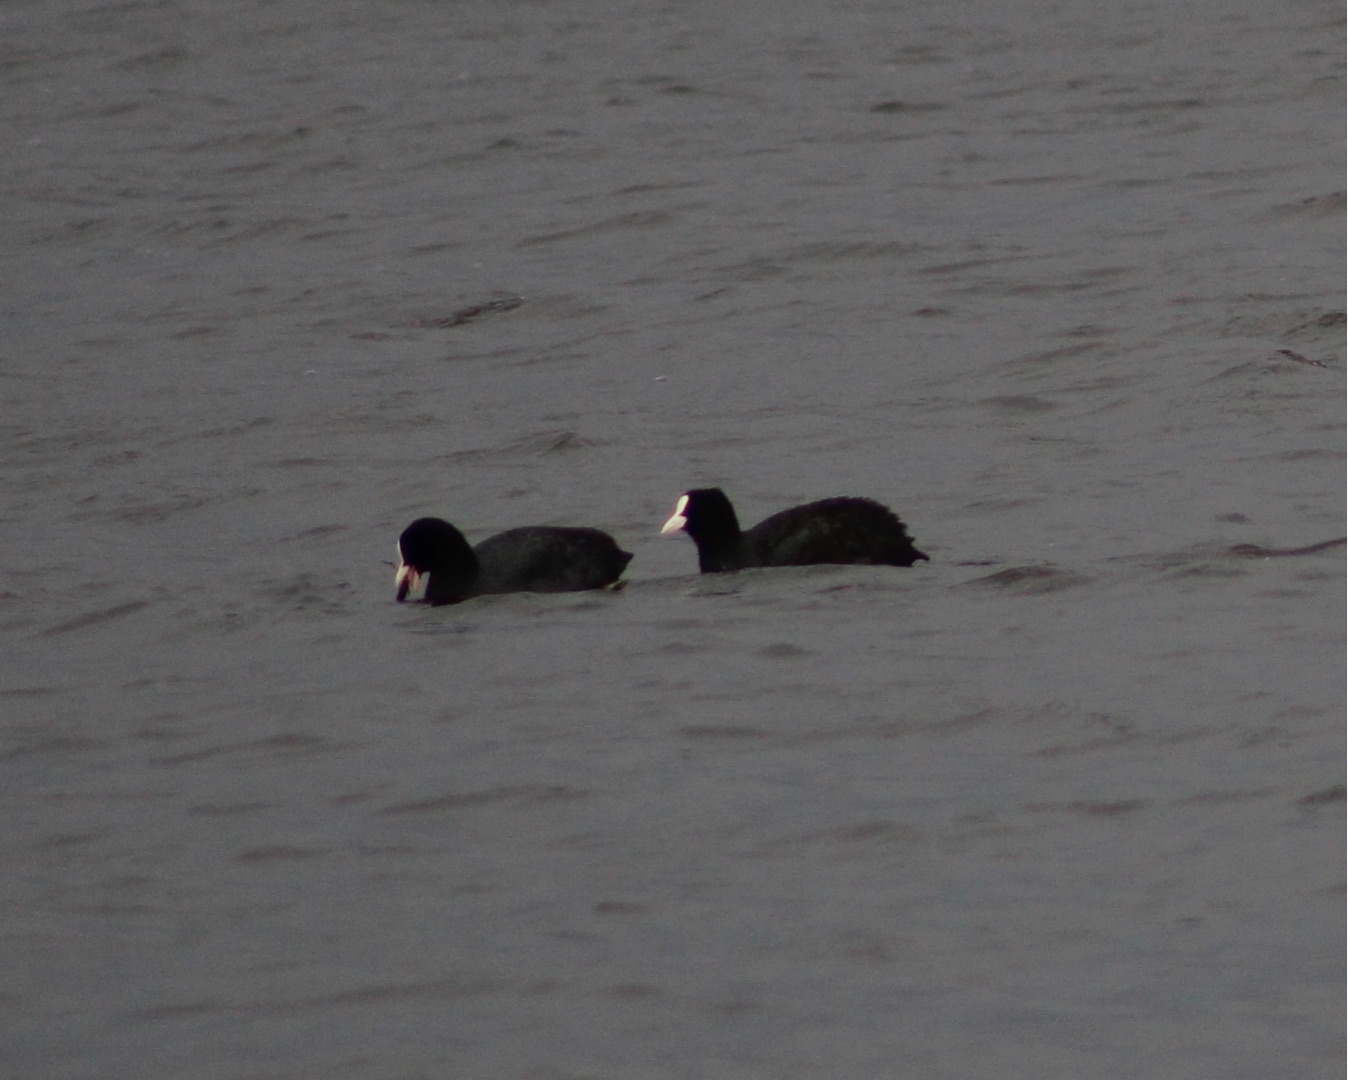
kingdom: Animalia
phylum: Chordata
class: Aves
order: Gruiformes
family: Rallidae
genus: Fulica
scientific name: Fulica atra
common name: Blishøne
